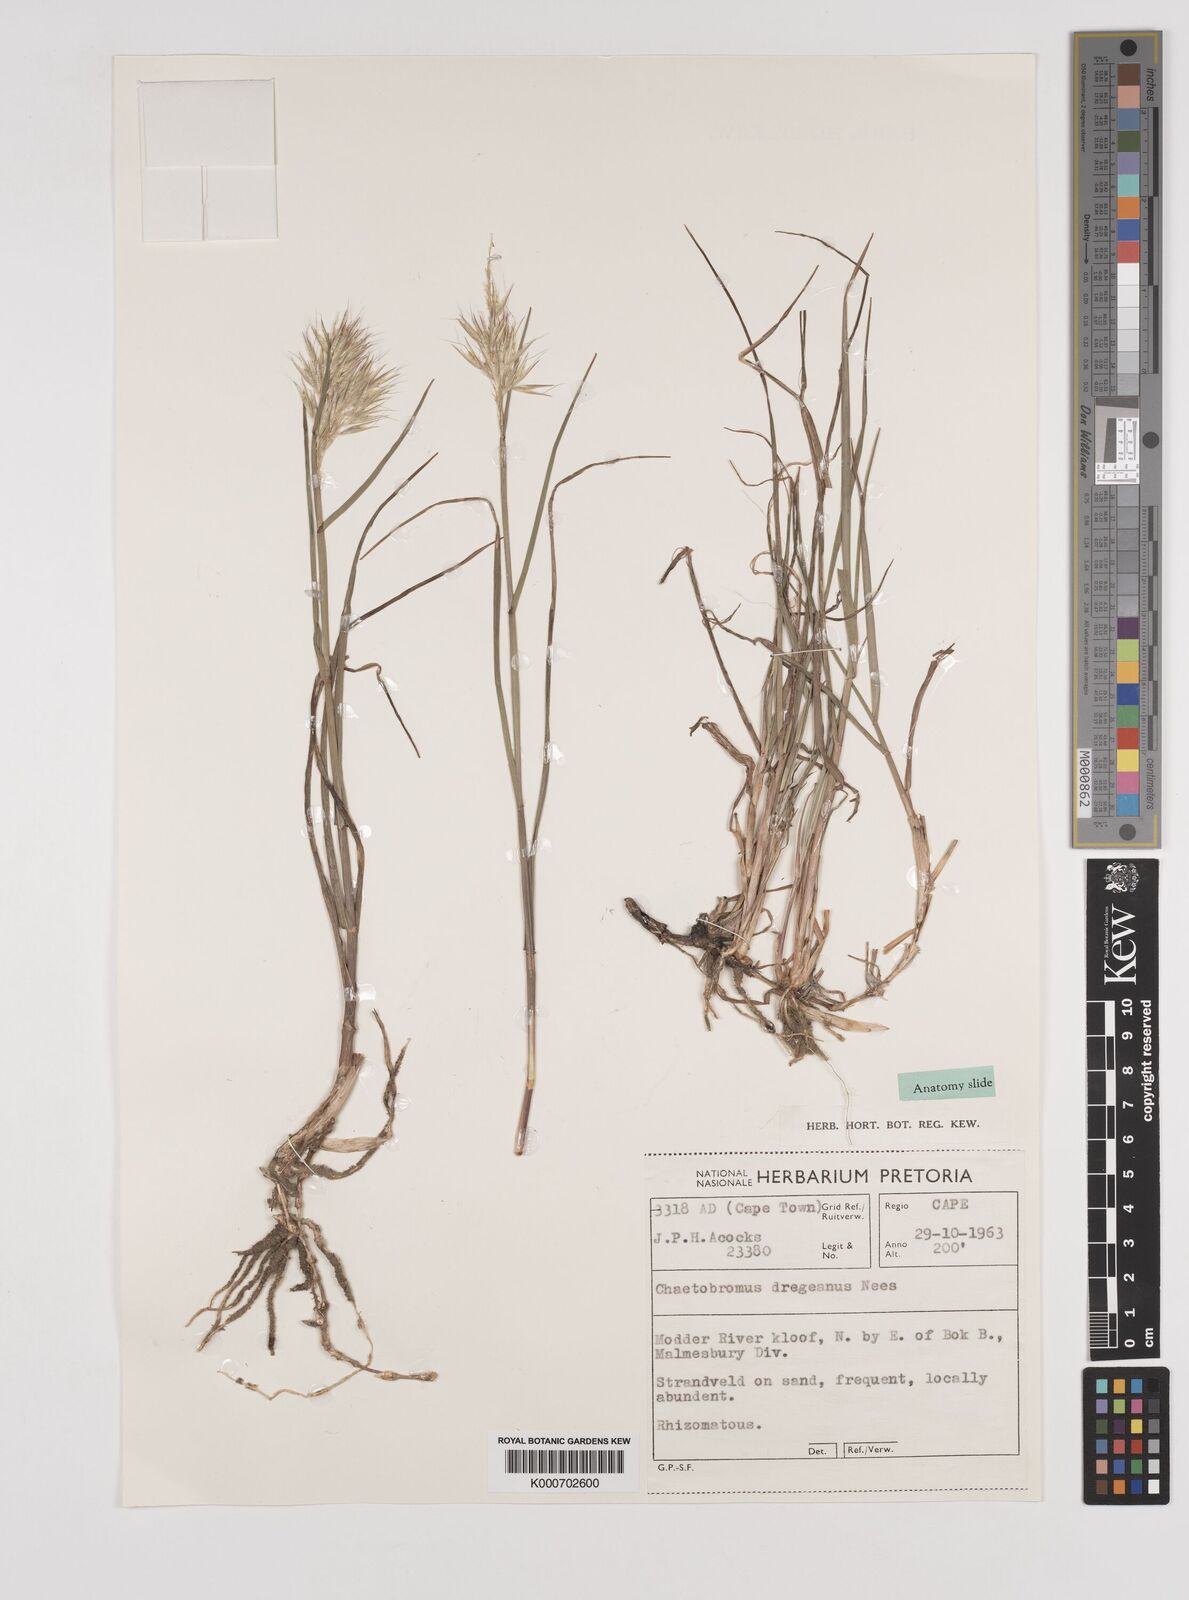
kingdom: Plantae
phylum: Tracheophyta
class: Liliopsida
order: Poales
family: Poaceae
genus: Chaetobromus
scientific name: Chaetobromus involucratus
